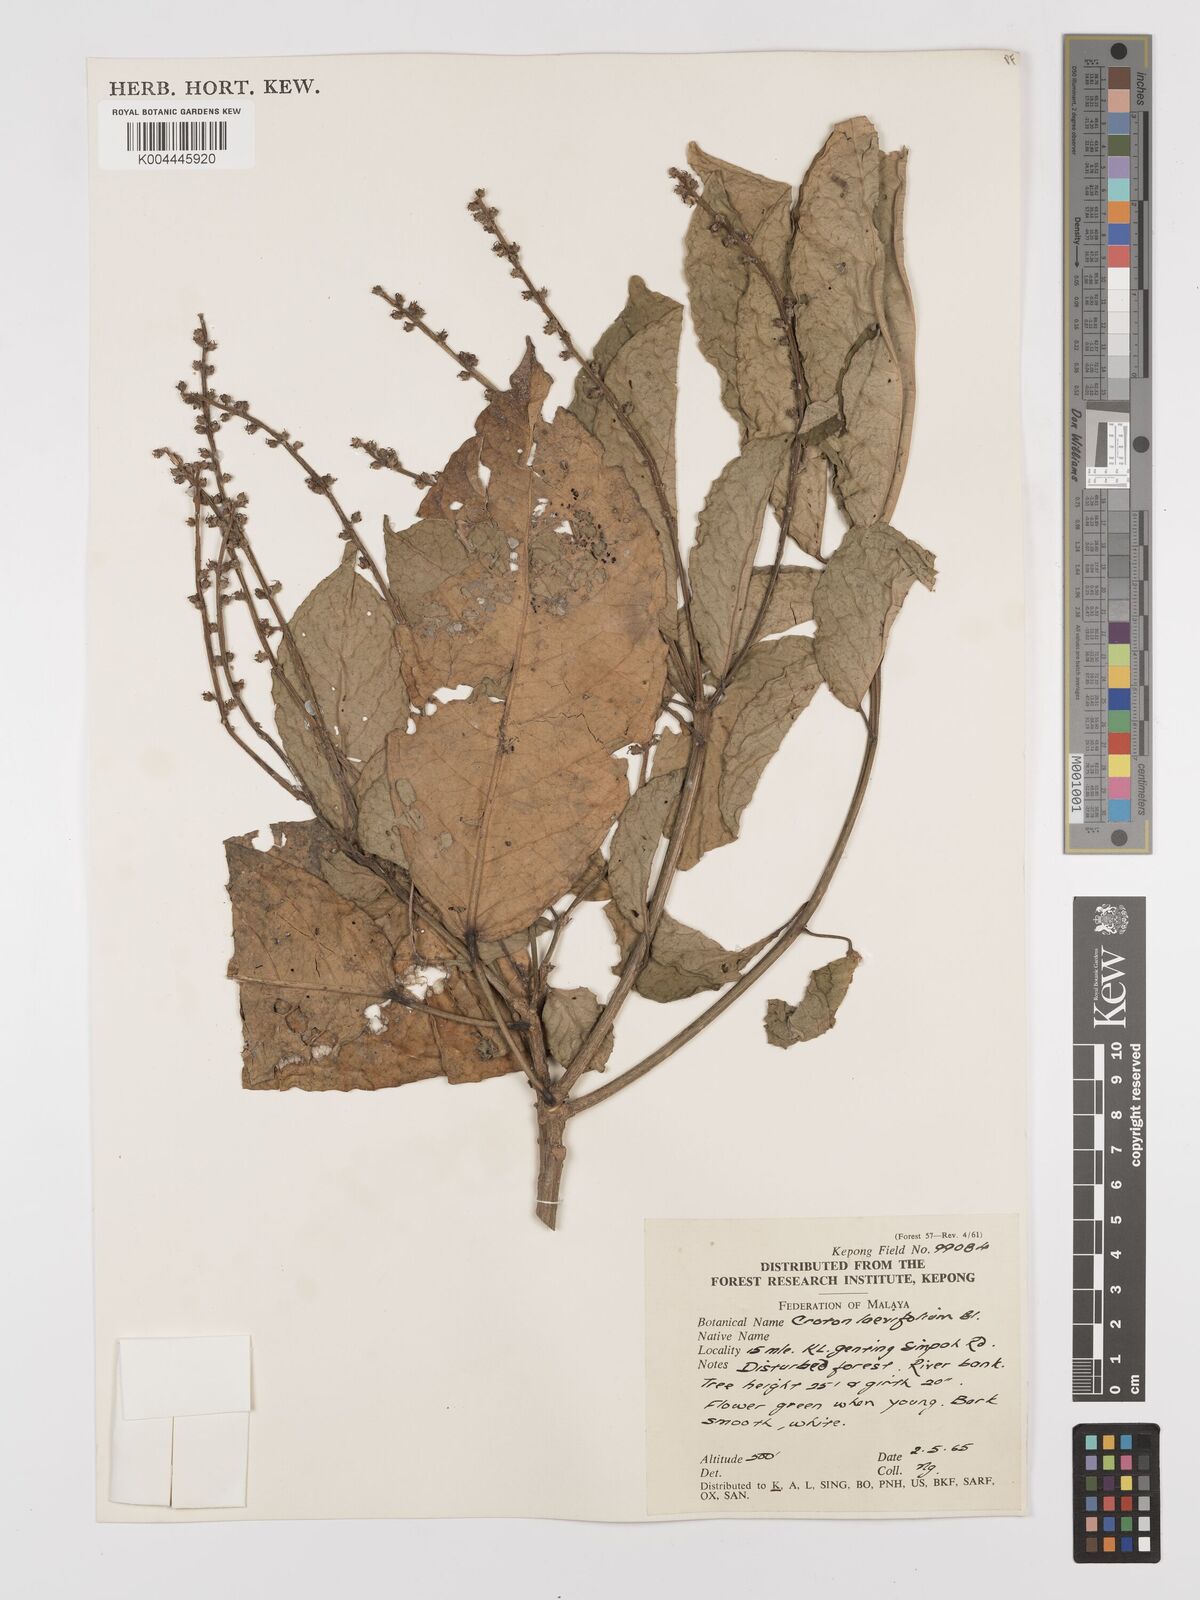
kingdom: Plantae
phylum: Tracheophyta
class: Magnoliopsida
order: Malpighiales
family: Euphorbiaceae
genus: Croton
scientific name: Croton griffithii
